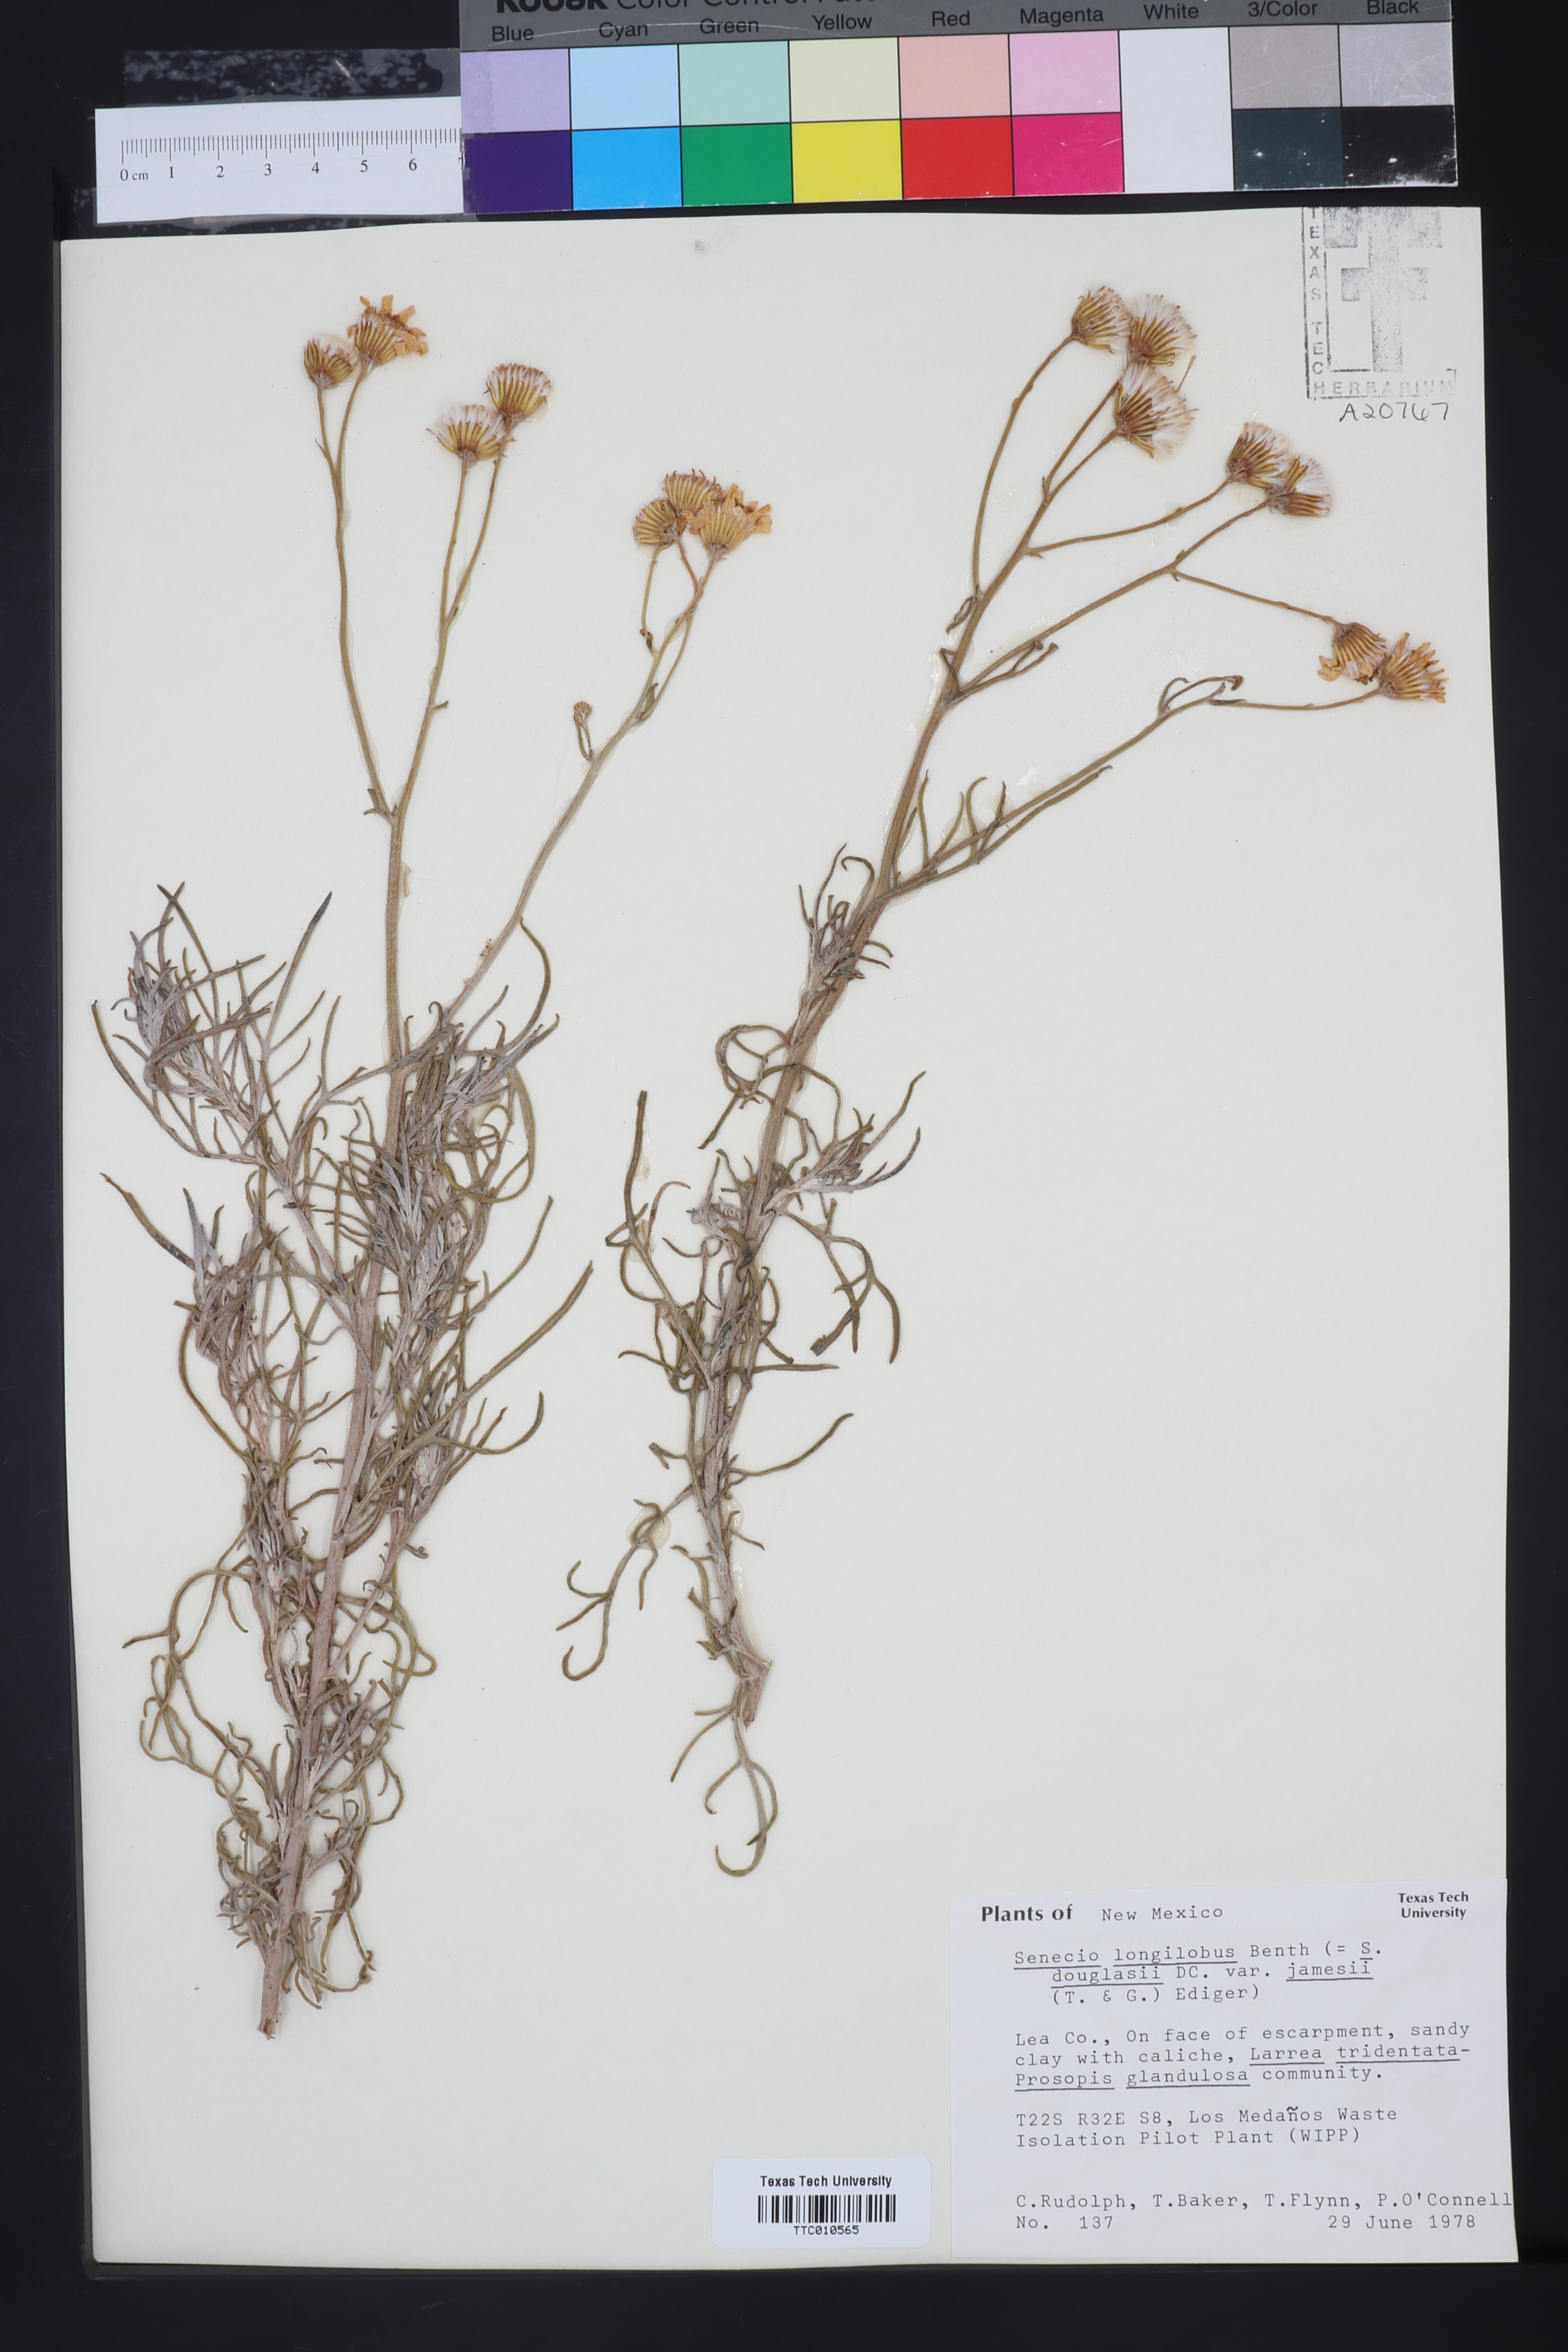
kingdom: Plantae
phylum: Tracheophyta
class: Magnoliopsida
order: Asterales
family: Asteraceae
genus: Senecio
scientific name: Senecio flaccidus
